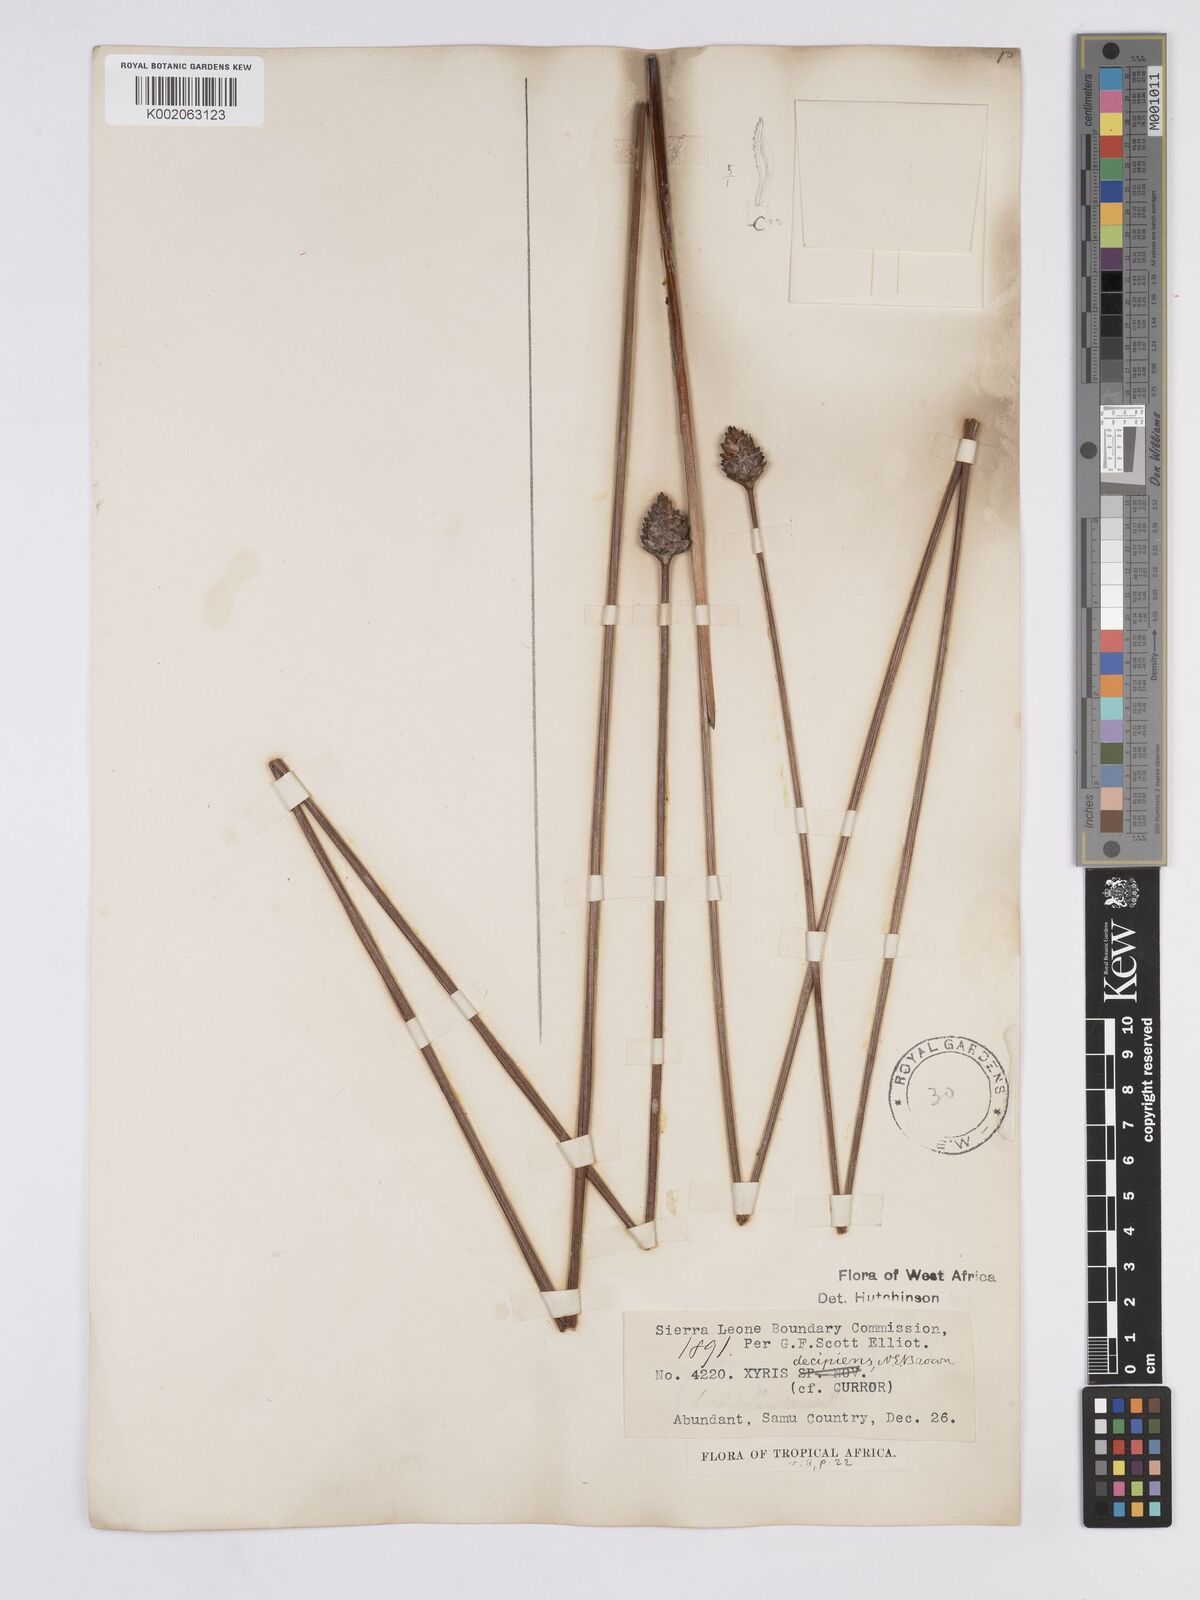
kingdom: Plantae
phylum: Tracheophyta
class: Liliopsida
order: Poales
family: Xyridaceae
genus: Xyris
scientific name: Xyris decipiens
